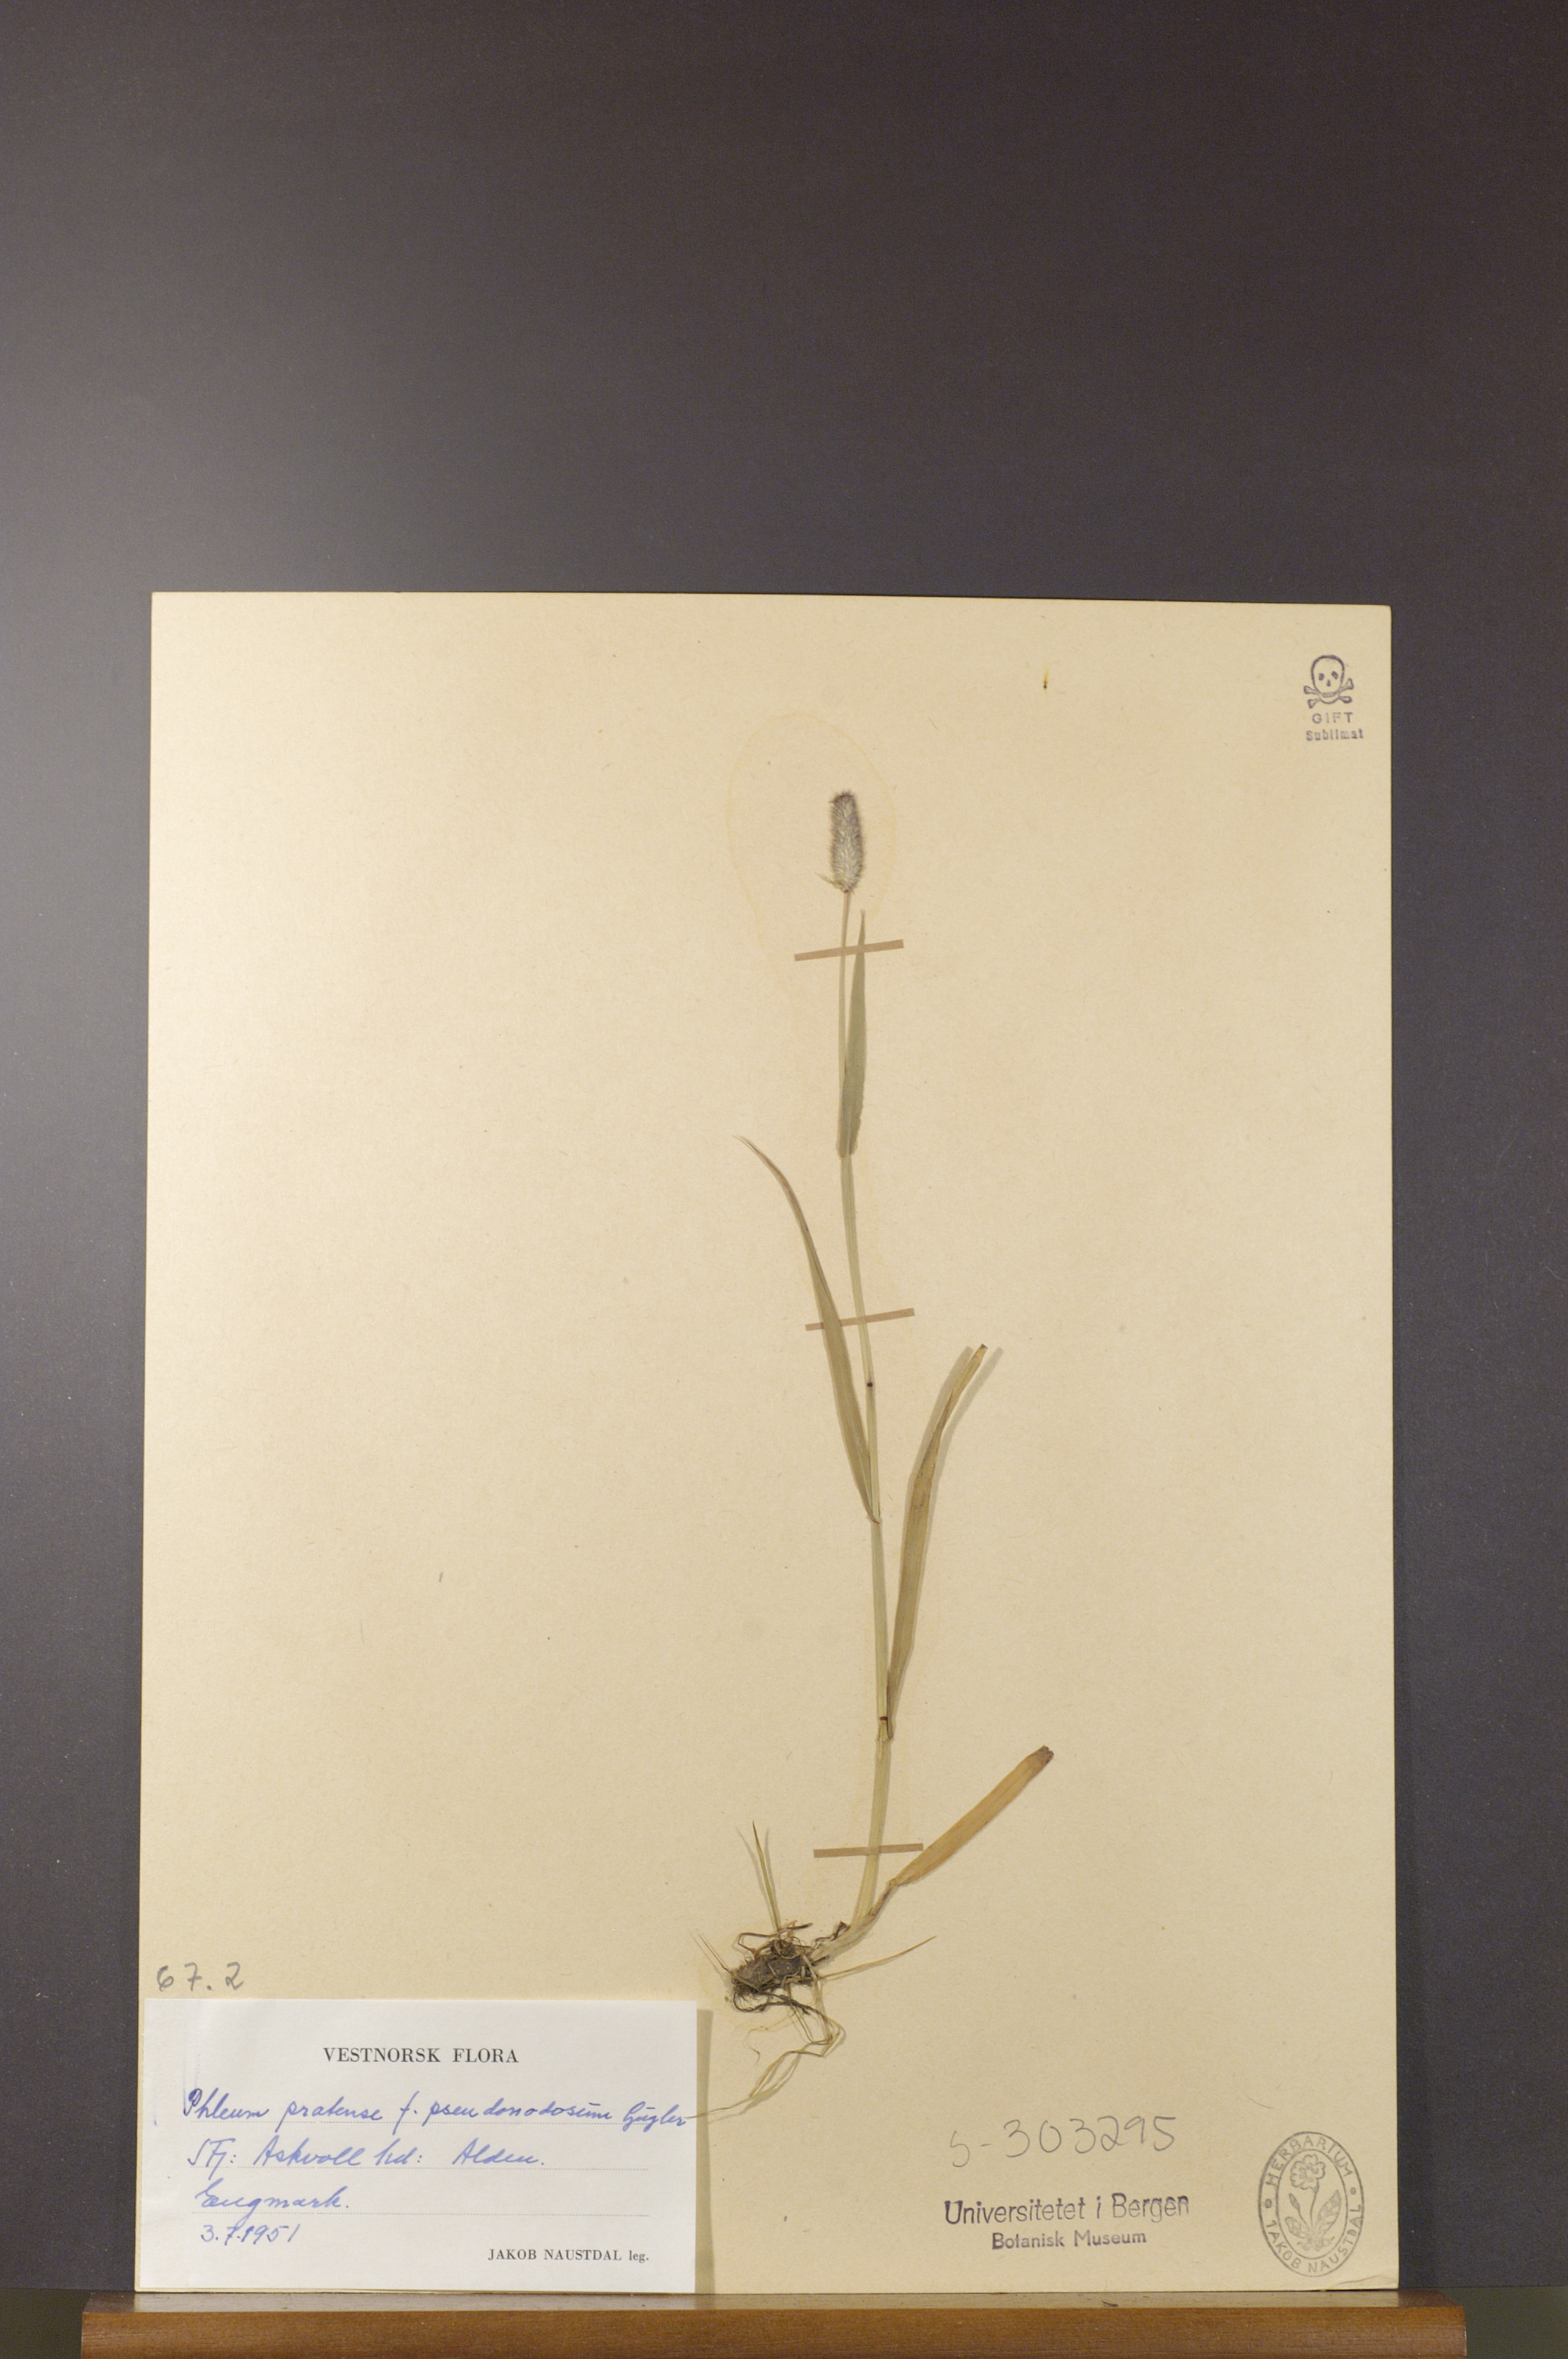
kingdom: Plantae
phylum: Tracheophyta
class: Liliopsida
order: Poales
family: Poaceae
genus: Phleum
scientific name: Phleum pratense
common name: Timothy grass
